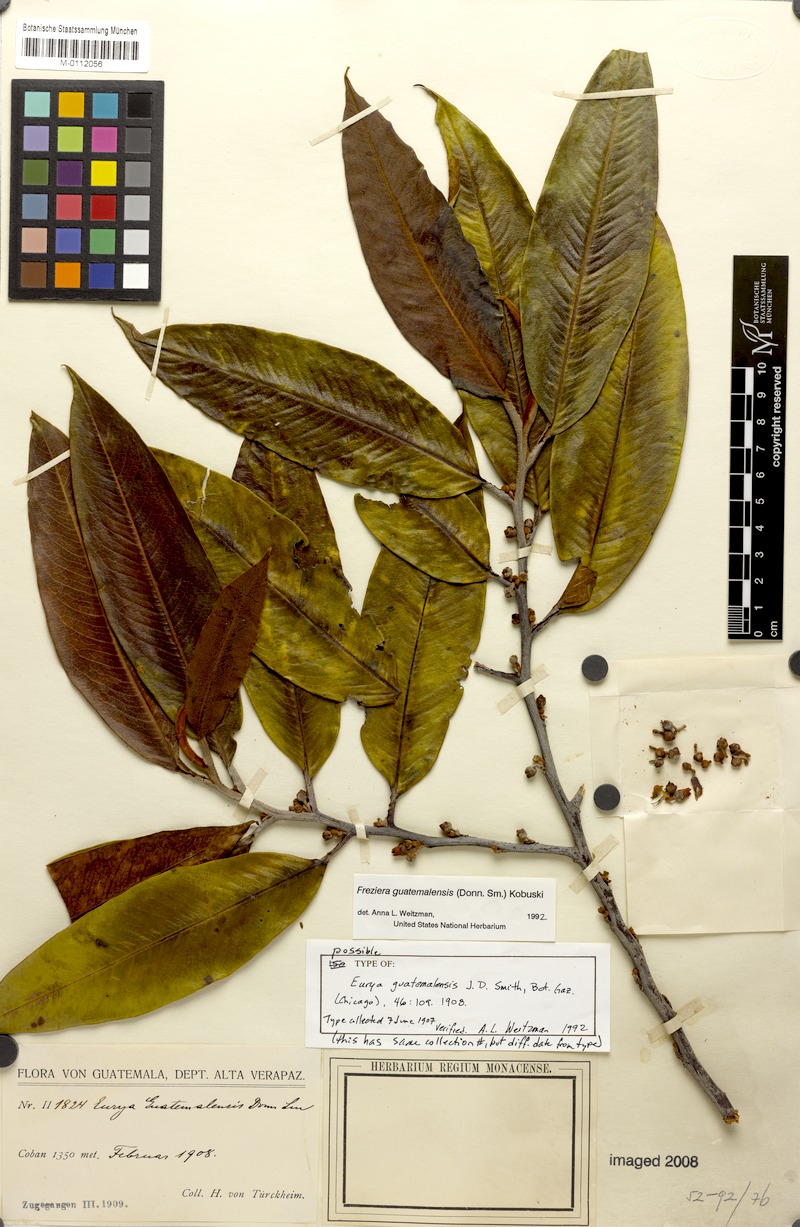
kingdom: Plantae
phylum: Tracheophyta
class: Magnoliopsida
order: Ericales
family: Pentaphylacaceae
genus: Freziera
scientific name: Freziera guatemalensis
